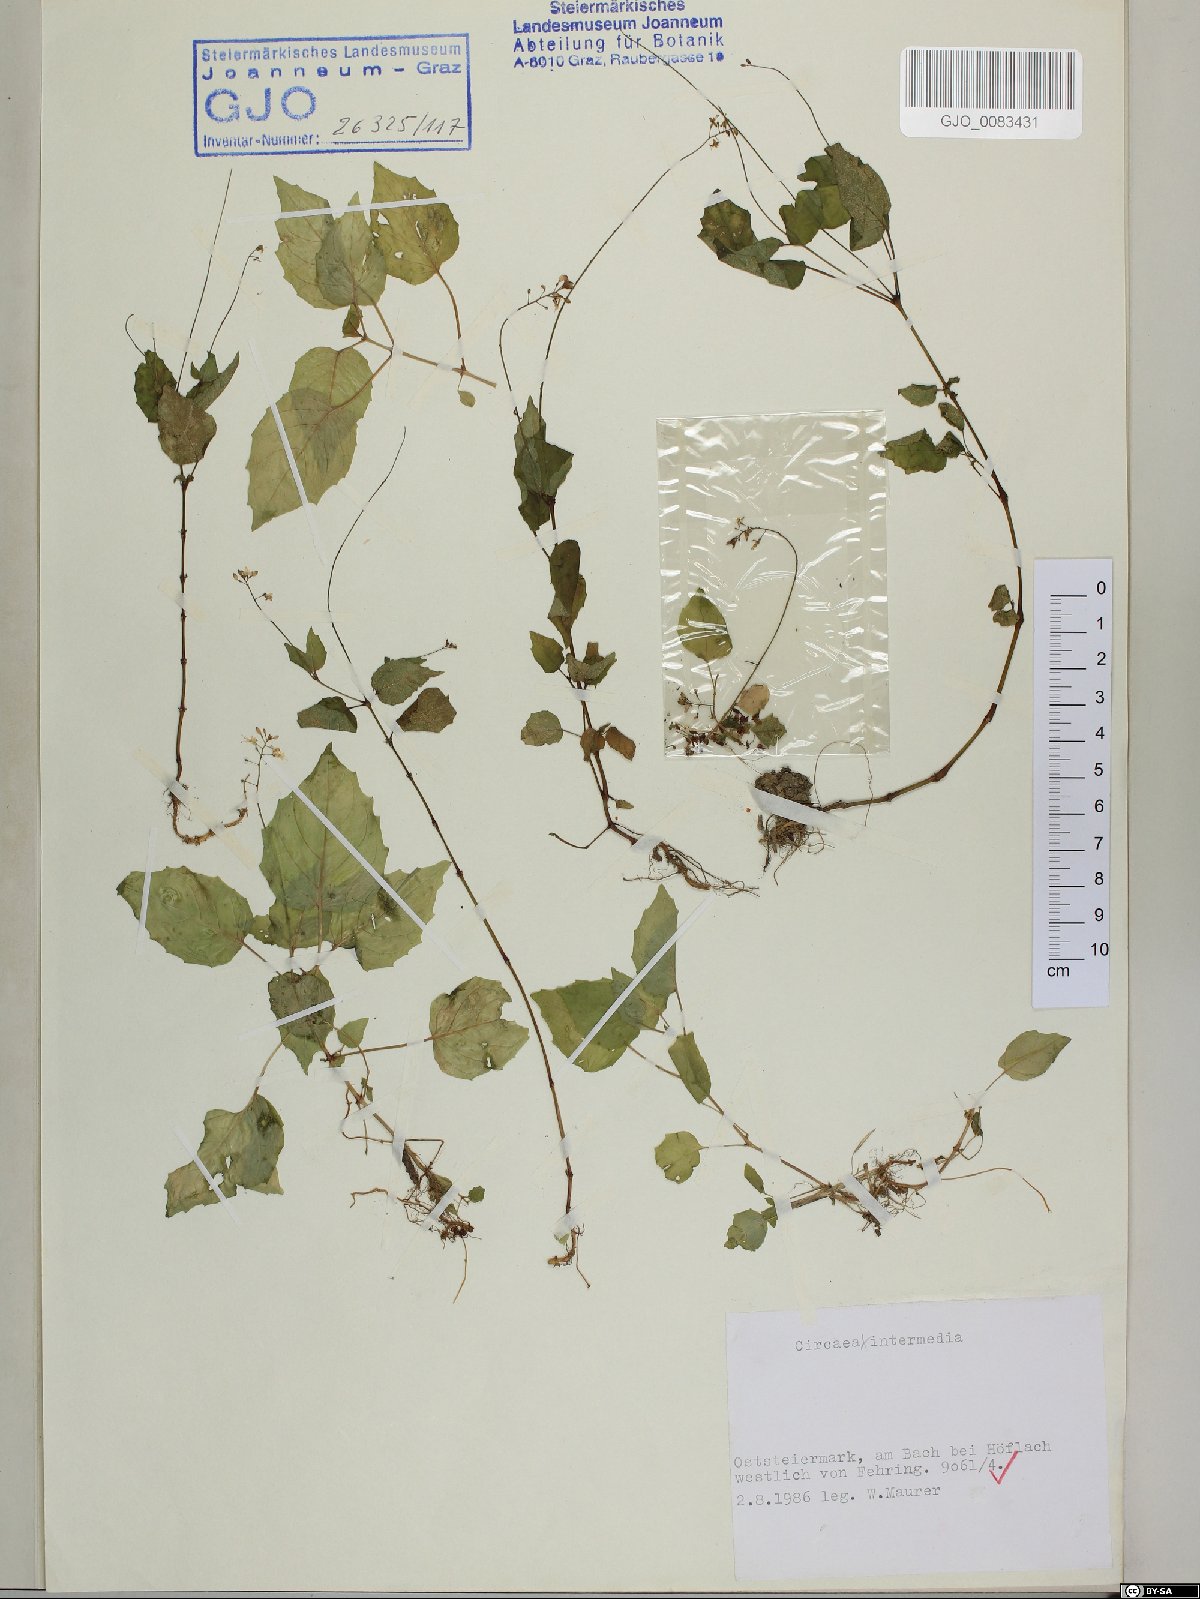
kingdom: Plantae
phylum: Tracheophyta
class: Magnoliopsida
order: Myrtales
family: Onagraceae
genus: Circaea
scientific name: Circaea intermedia
